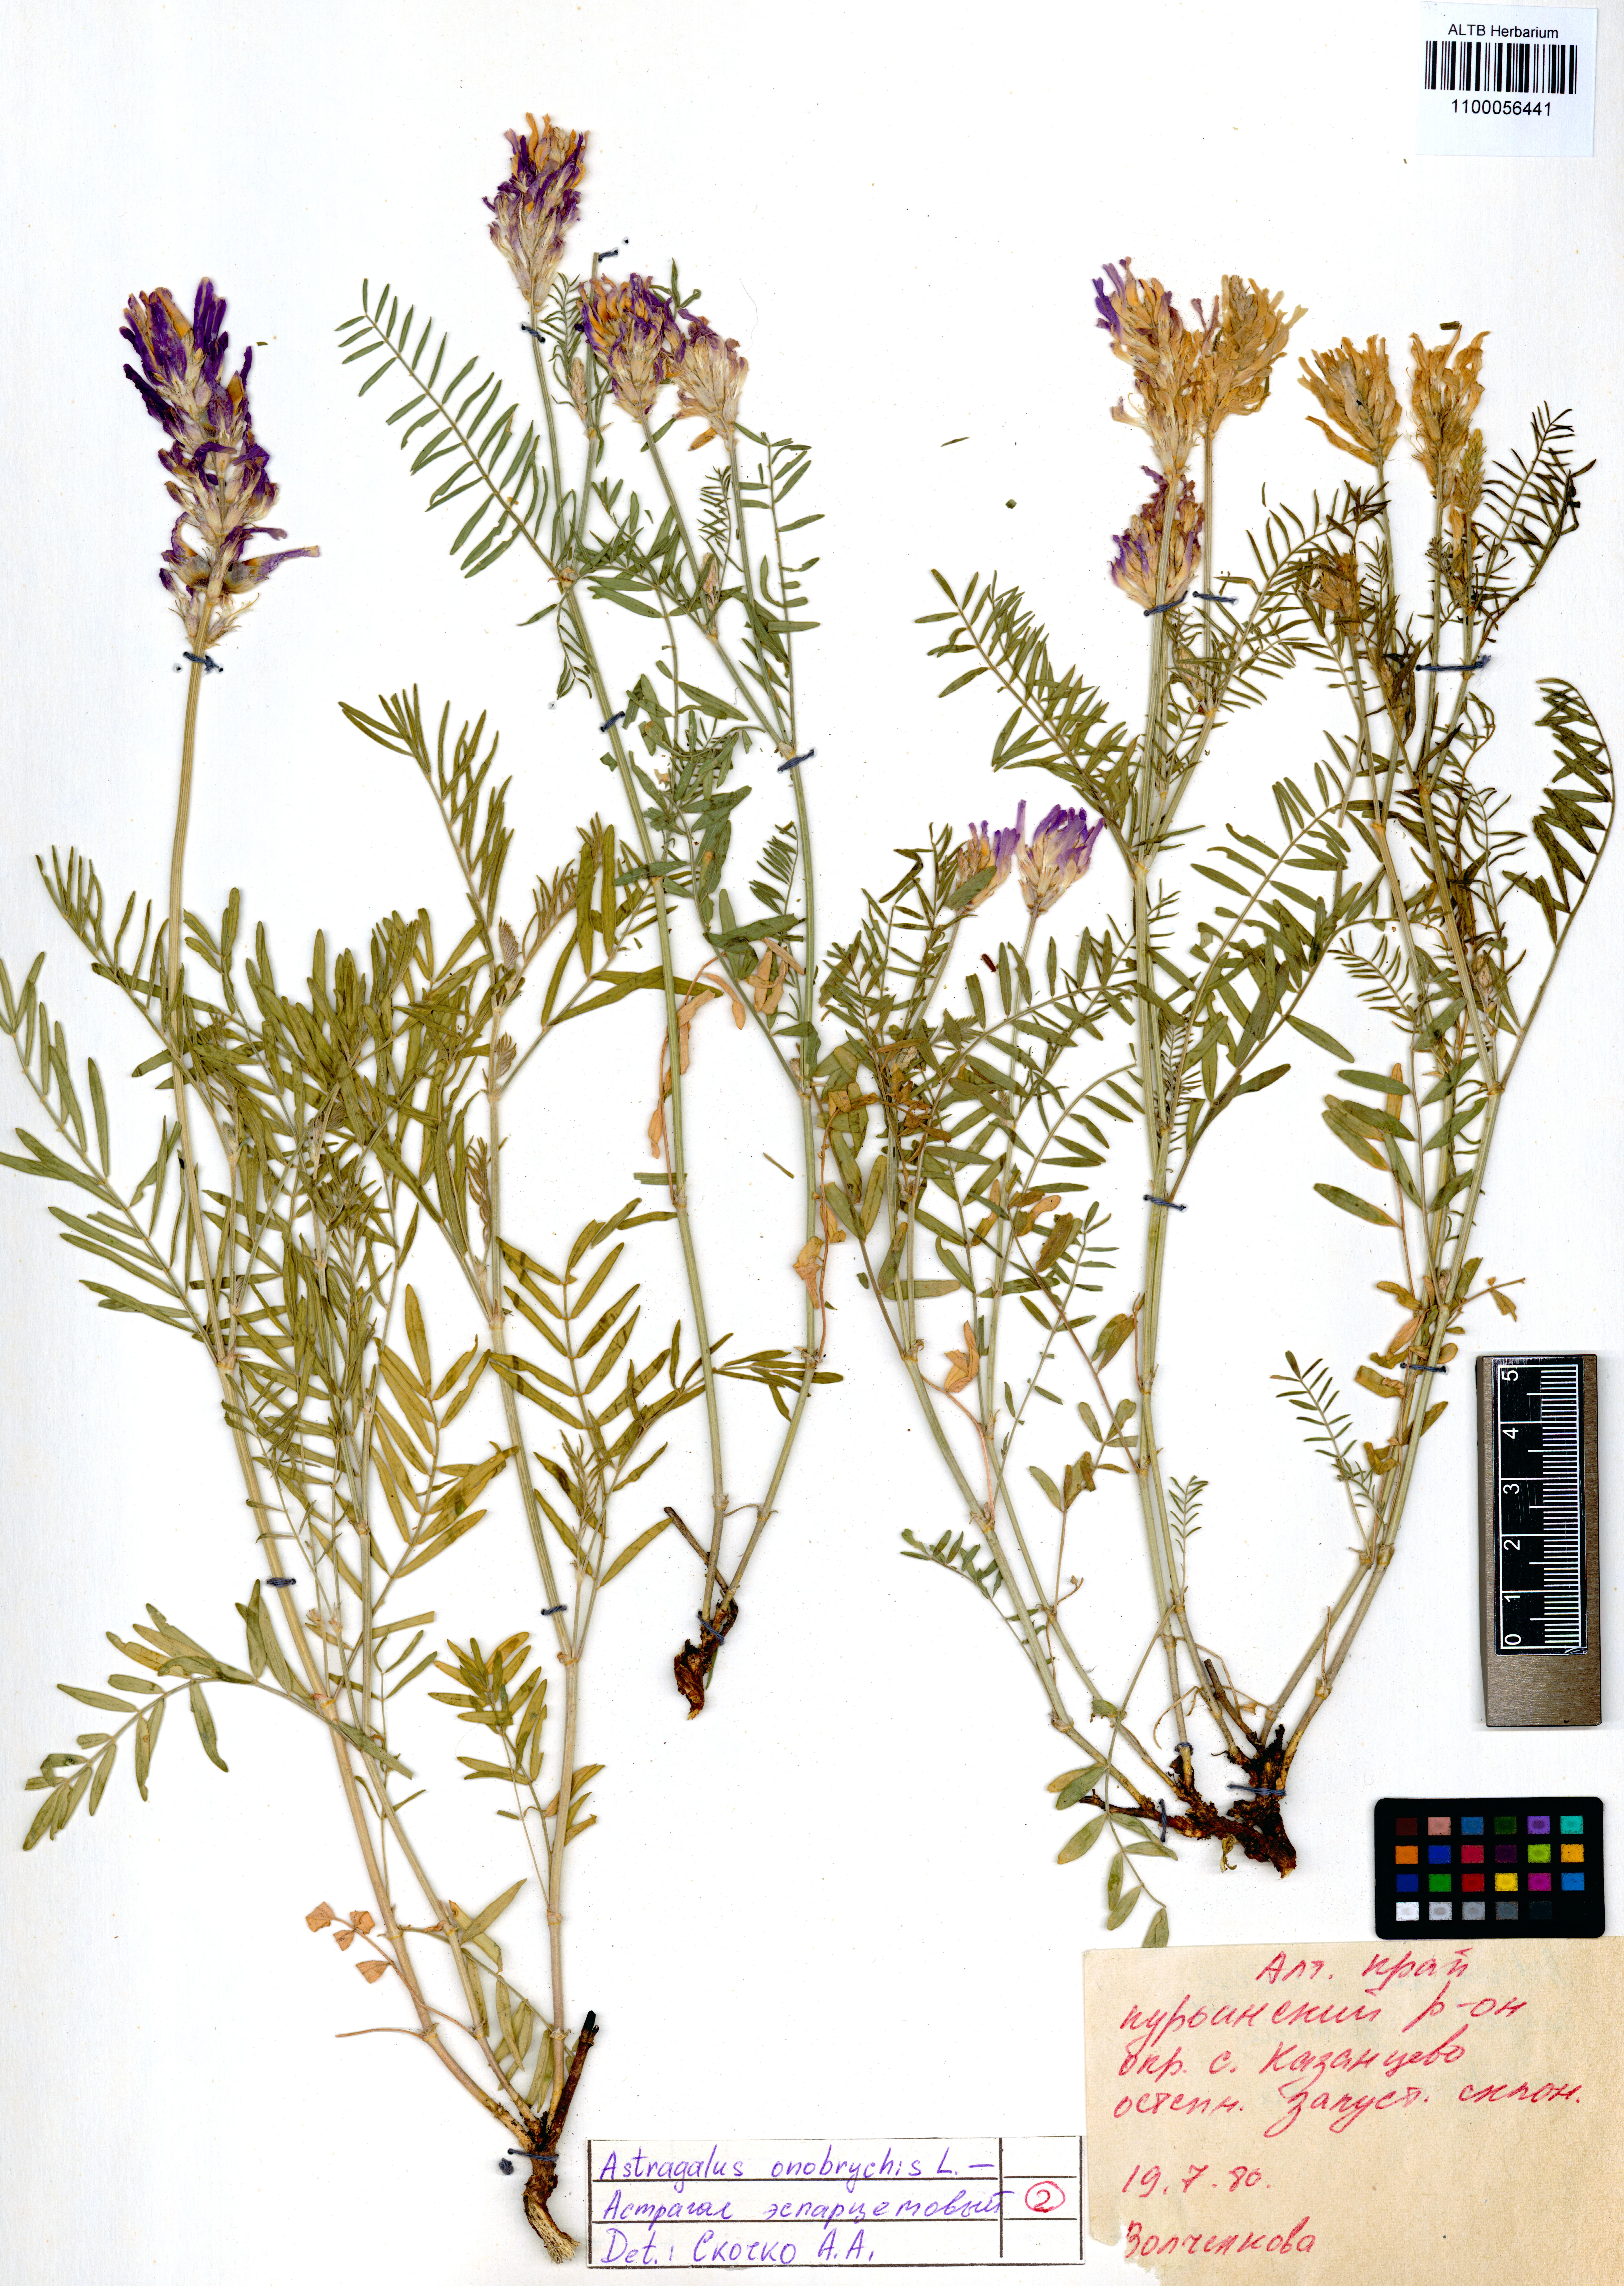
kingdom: Plantae
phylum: Tracheophyta
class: Magnoliopsida
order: Fabales
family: Fabaceae
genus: Astragalus
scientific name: Astragalus onobrychis
